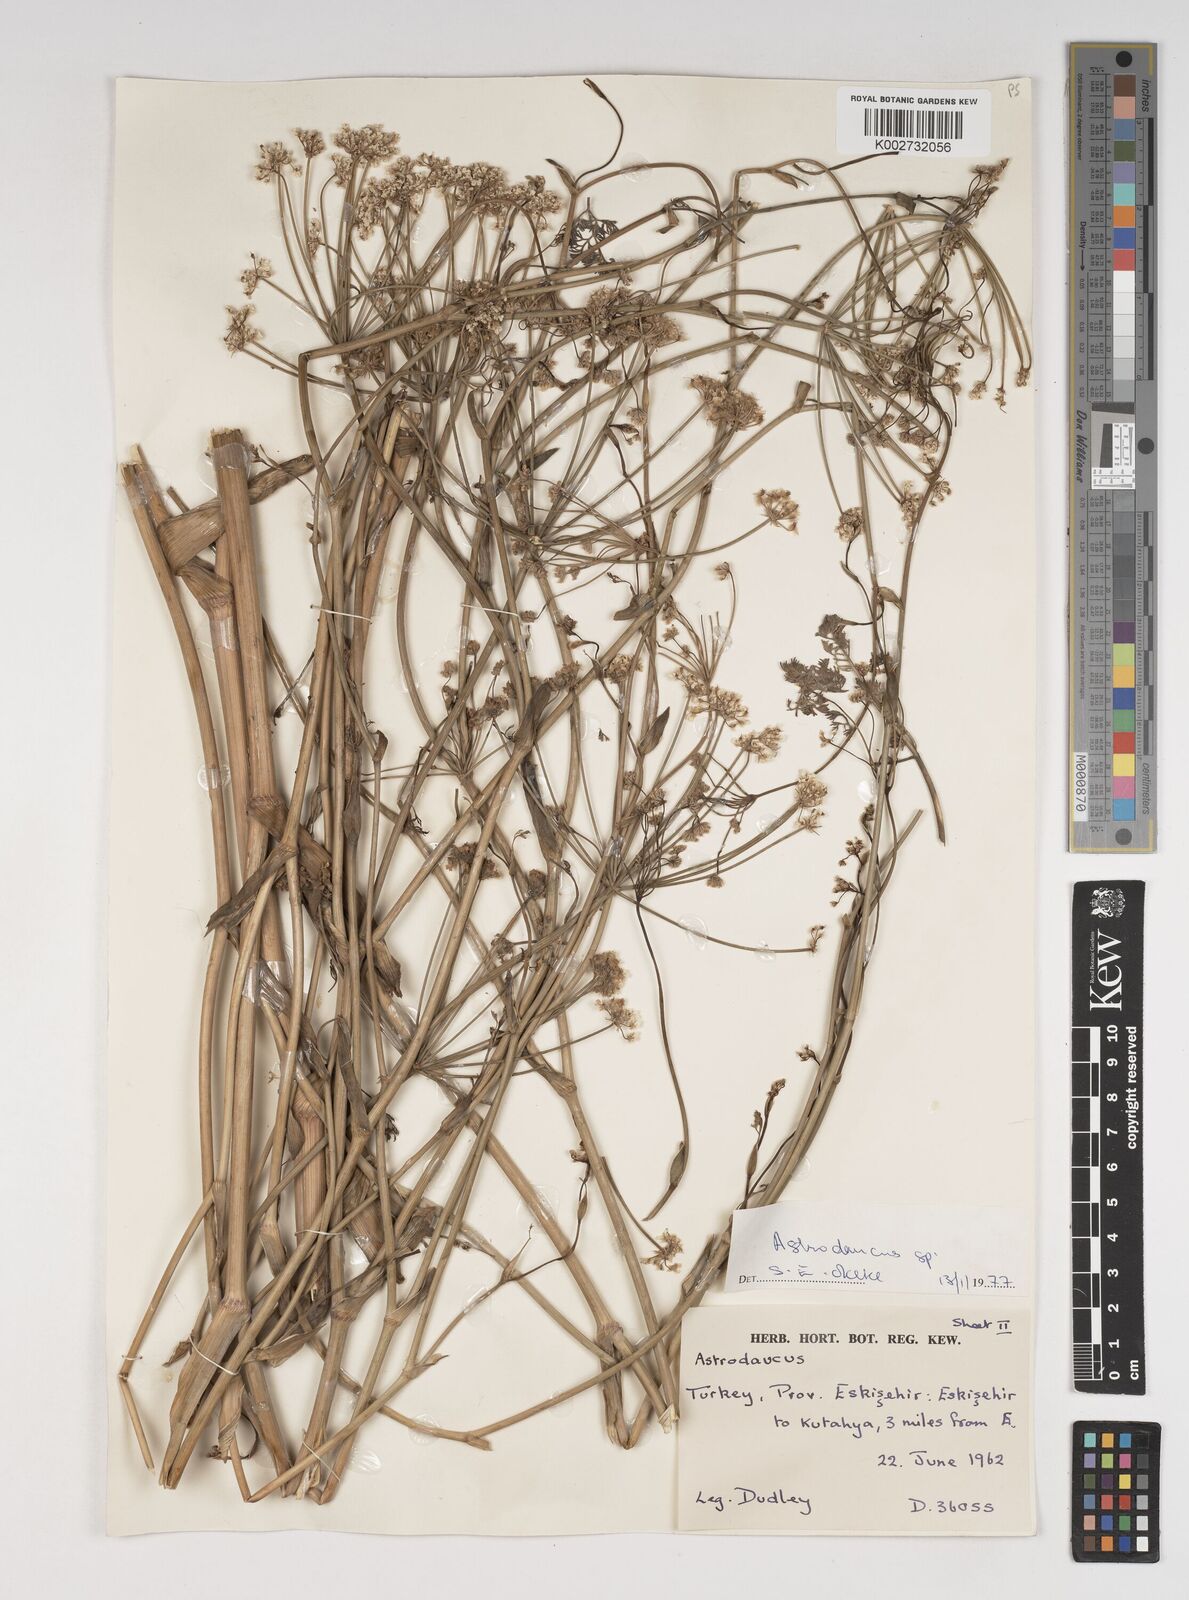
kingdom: Plantae
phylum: Tracheophyta
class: Magnoliopsida
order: Apiales
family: Apiaceae
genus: Astrodaucus
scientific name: Astrodaucus orientalis
